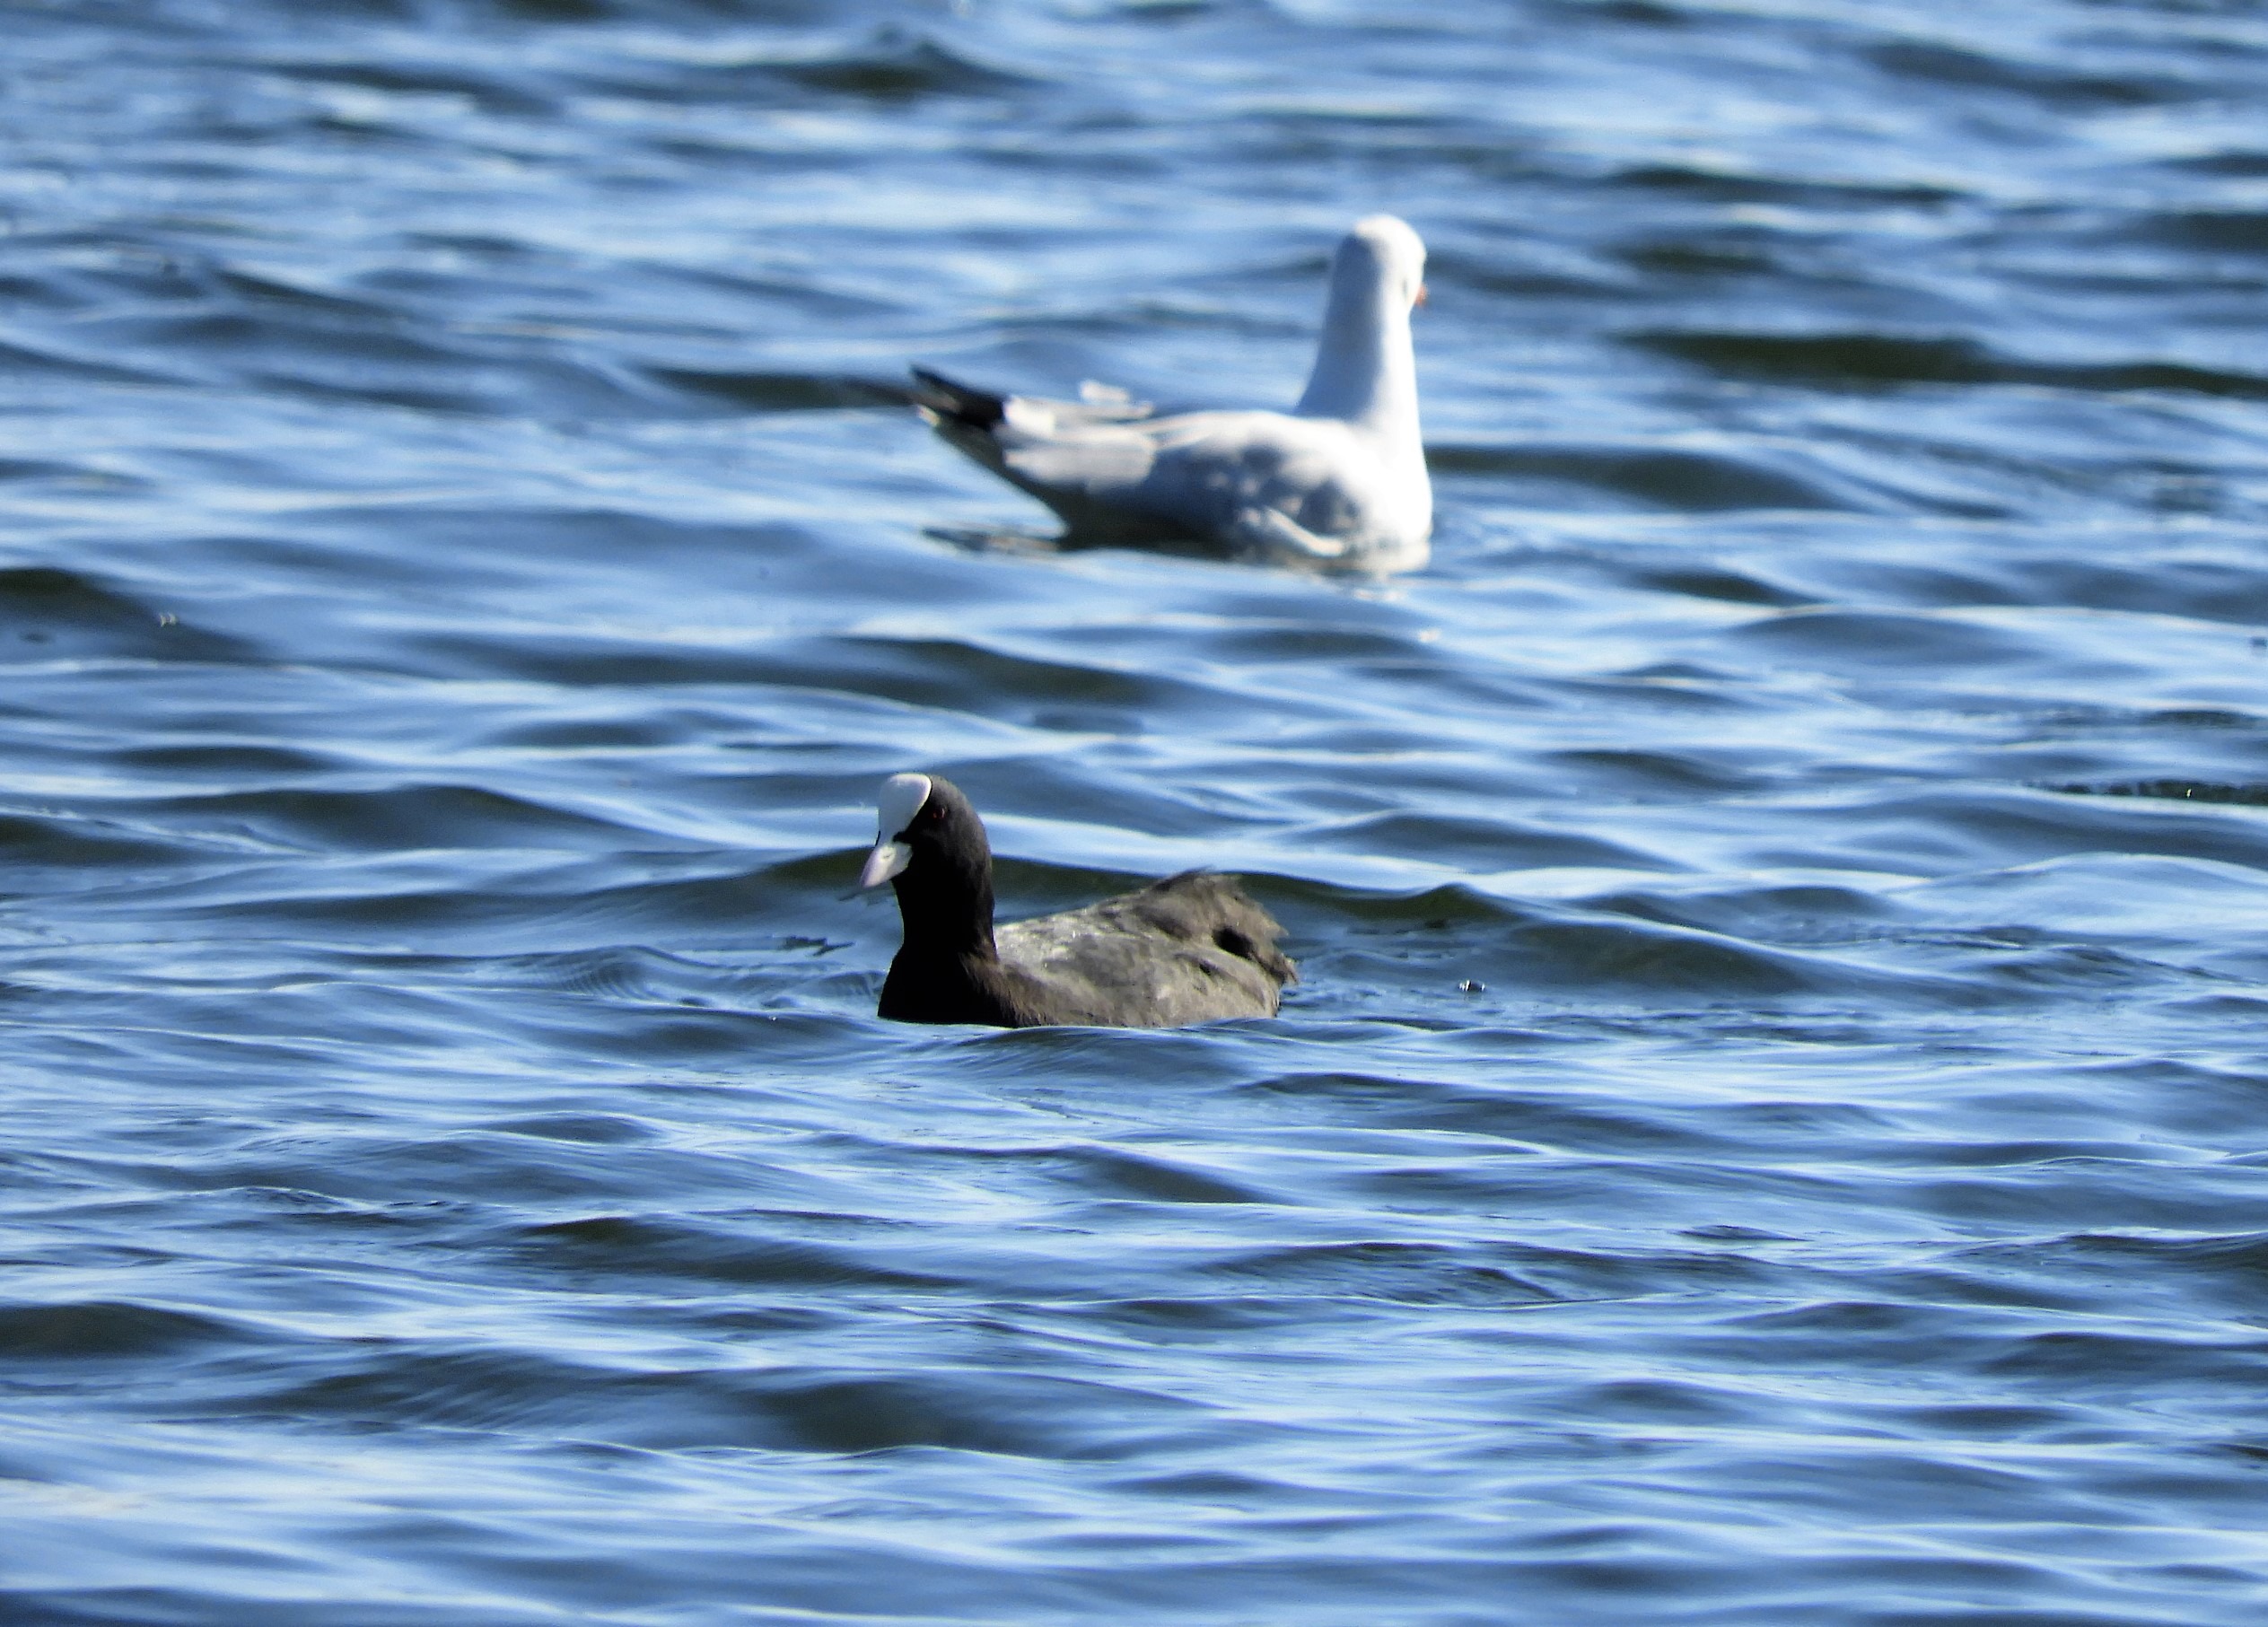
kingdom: Animalia
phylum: Chordata
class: Aves
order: Gruiformes
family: Rallidae
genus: Fulica
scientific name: Fulica atra
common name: Blishøne
